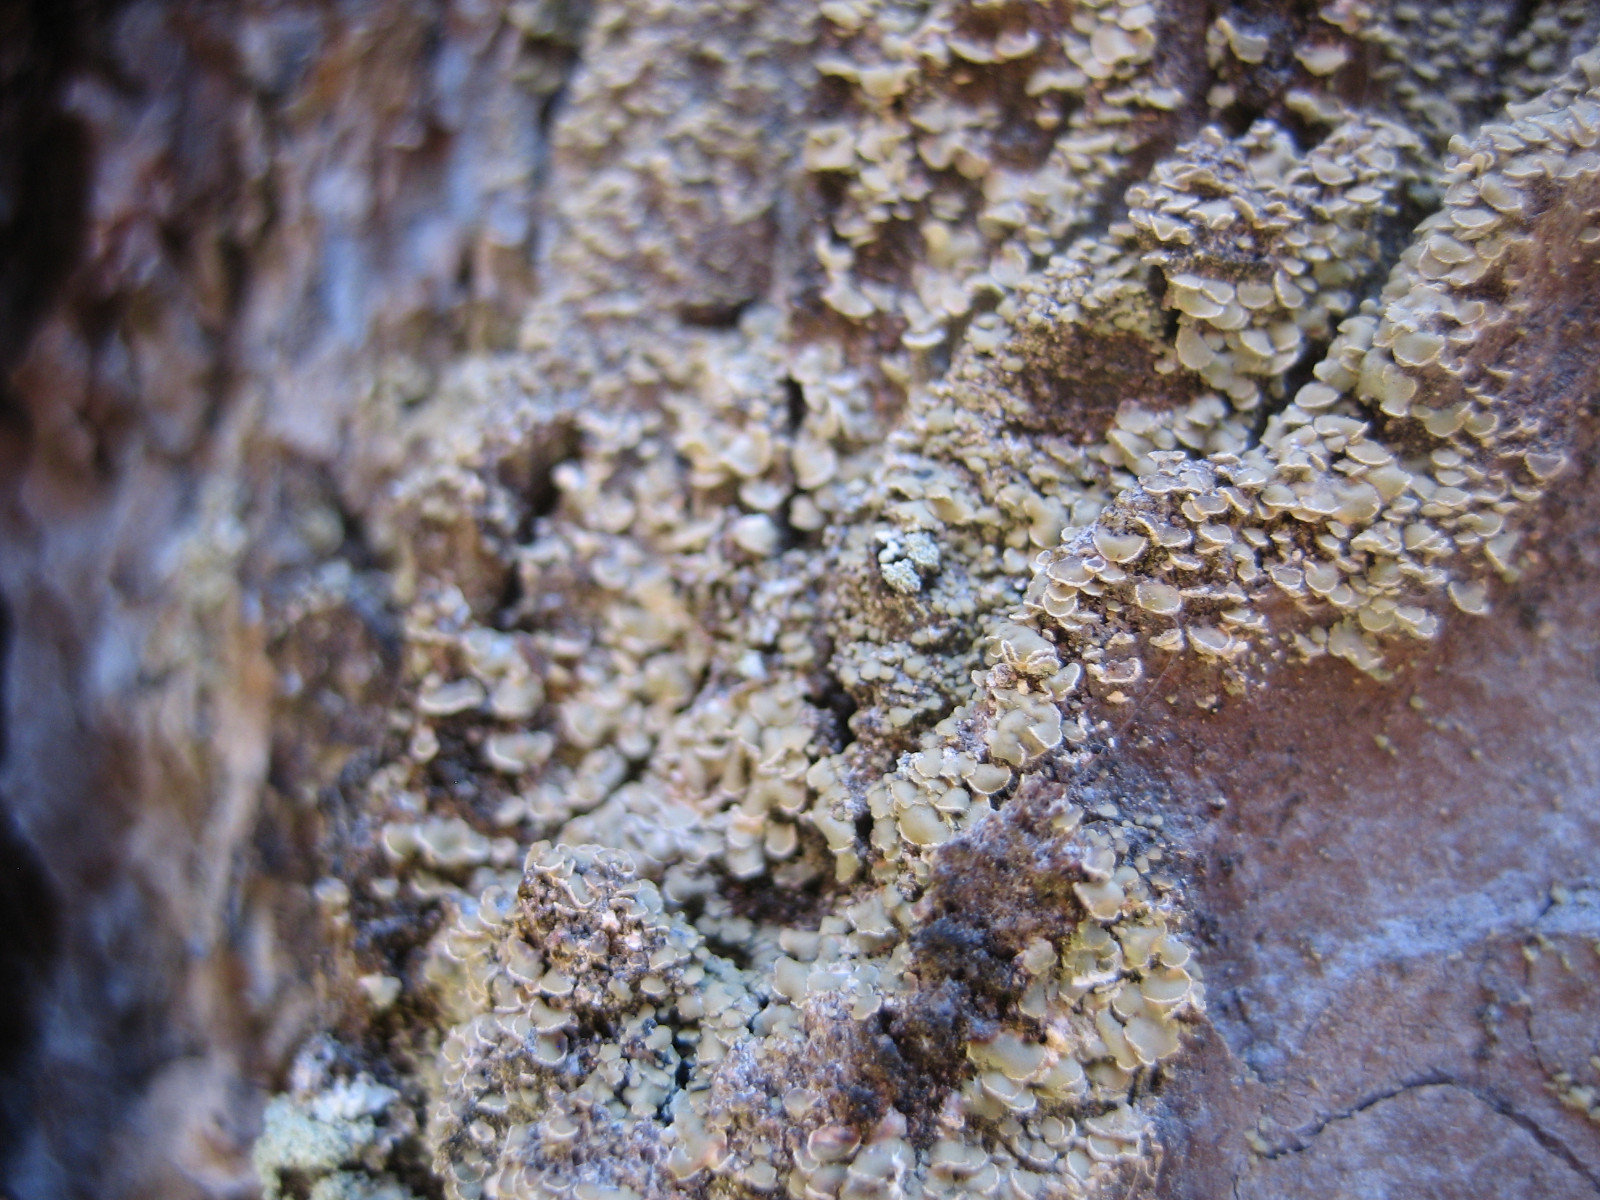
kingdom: Fungi
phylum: Ascomycota
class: Lecanoromycetes
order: Umbilicariales
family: Ophioparmaceae
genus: Hypocenomyce
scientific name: Hypocenomyce scalaris
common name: småskællet muslinglav
